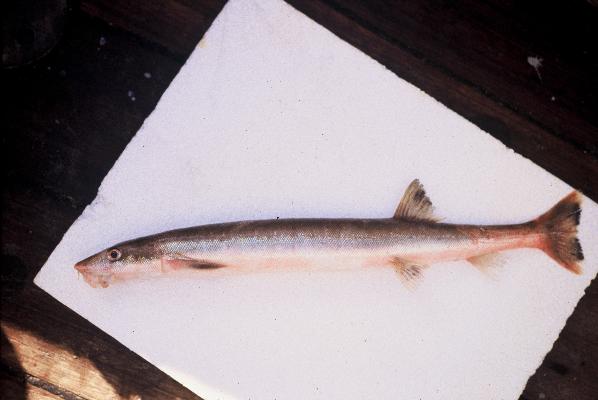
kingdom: Animalia
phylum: Chordata
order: Gonorynchiformes
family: Gonorynchidae
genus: Gonorynchus
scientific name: Gonorynchus gonorynchus
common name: Beaked salmon
